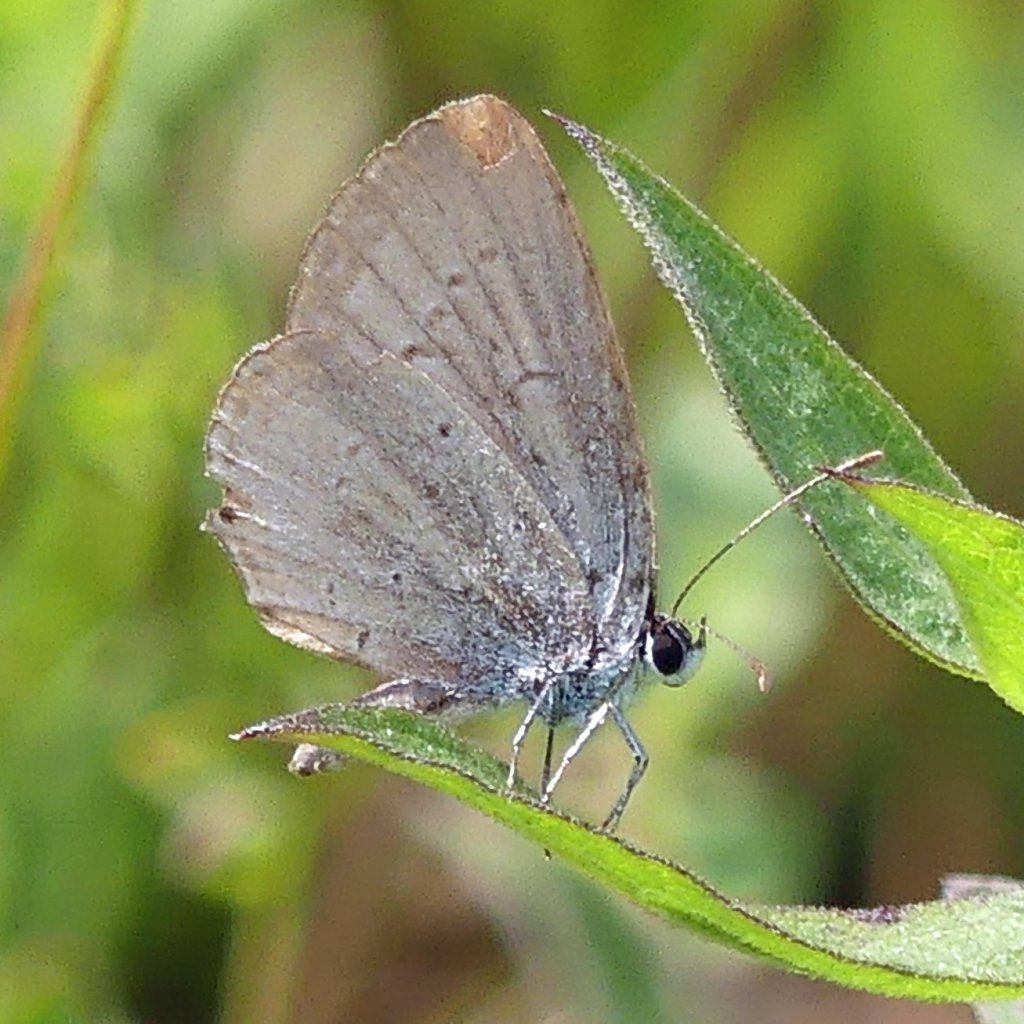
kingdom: Animalia
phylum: Arthropoda
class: Insecta
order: Lepidoptera
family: Lycaenidae
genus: Celastrina
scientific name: Celastrina lucia
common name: Northern Spring Azure
